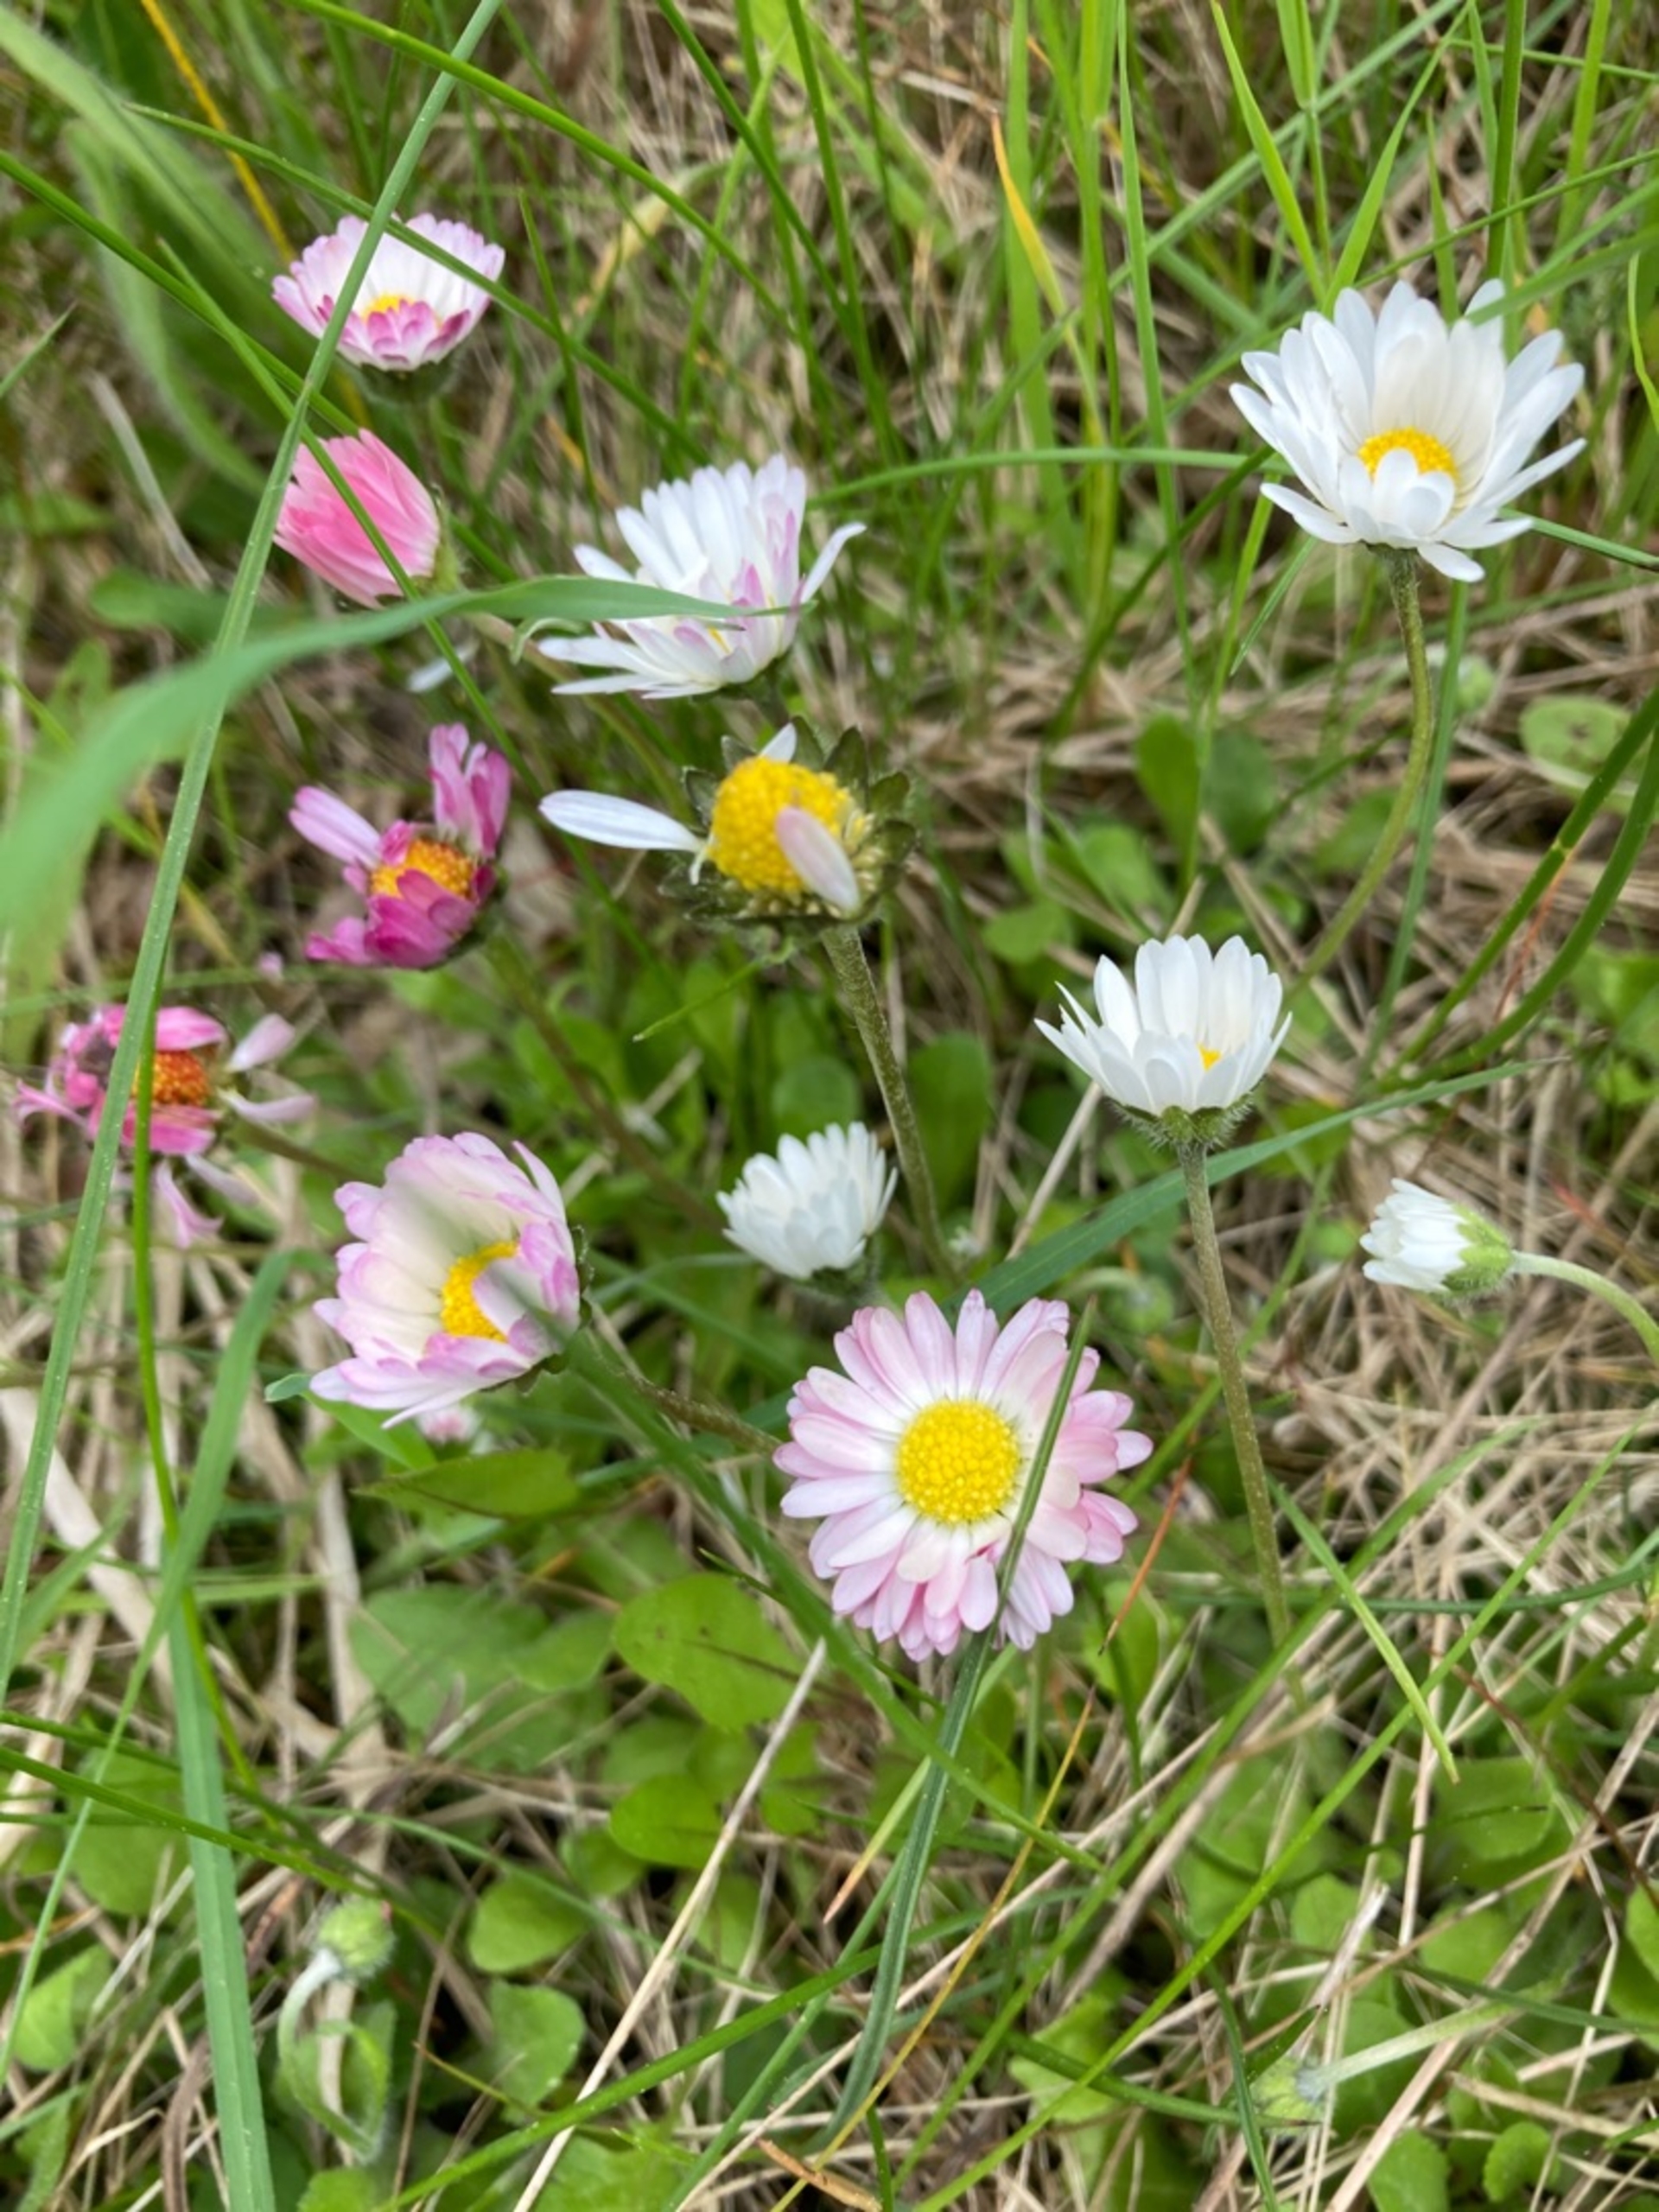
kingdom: Plantae
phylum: Tracheophyta
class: Magnoliopsida
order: Asterales
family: Asteraceae
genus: Bellis
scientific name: Bellis perennis
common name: Tusindfryd
